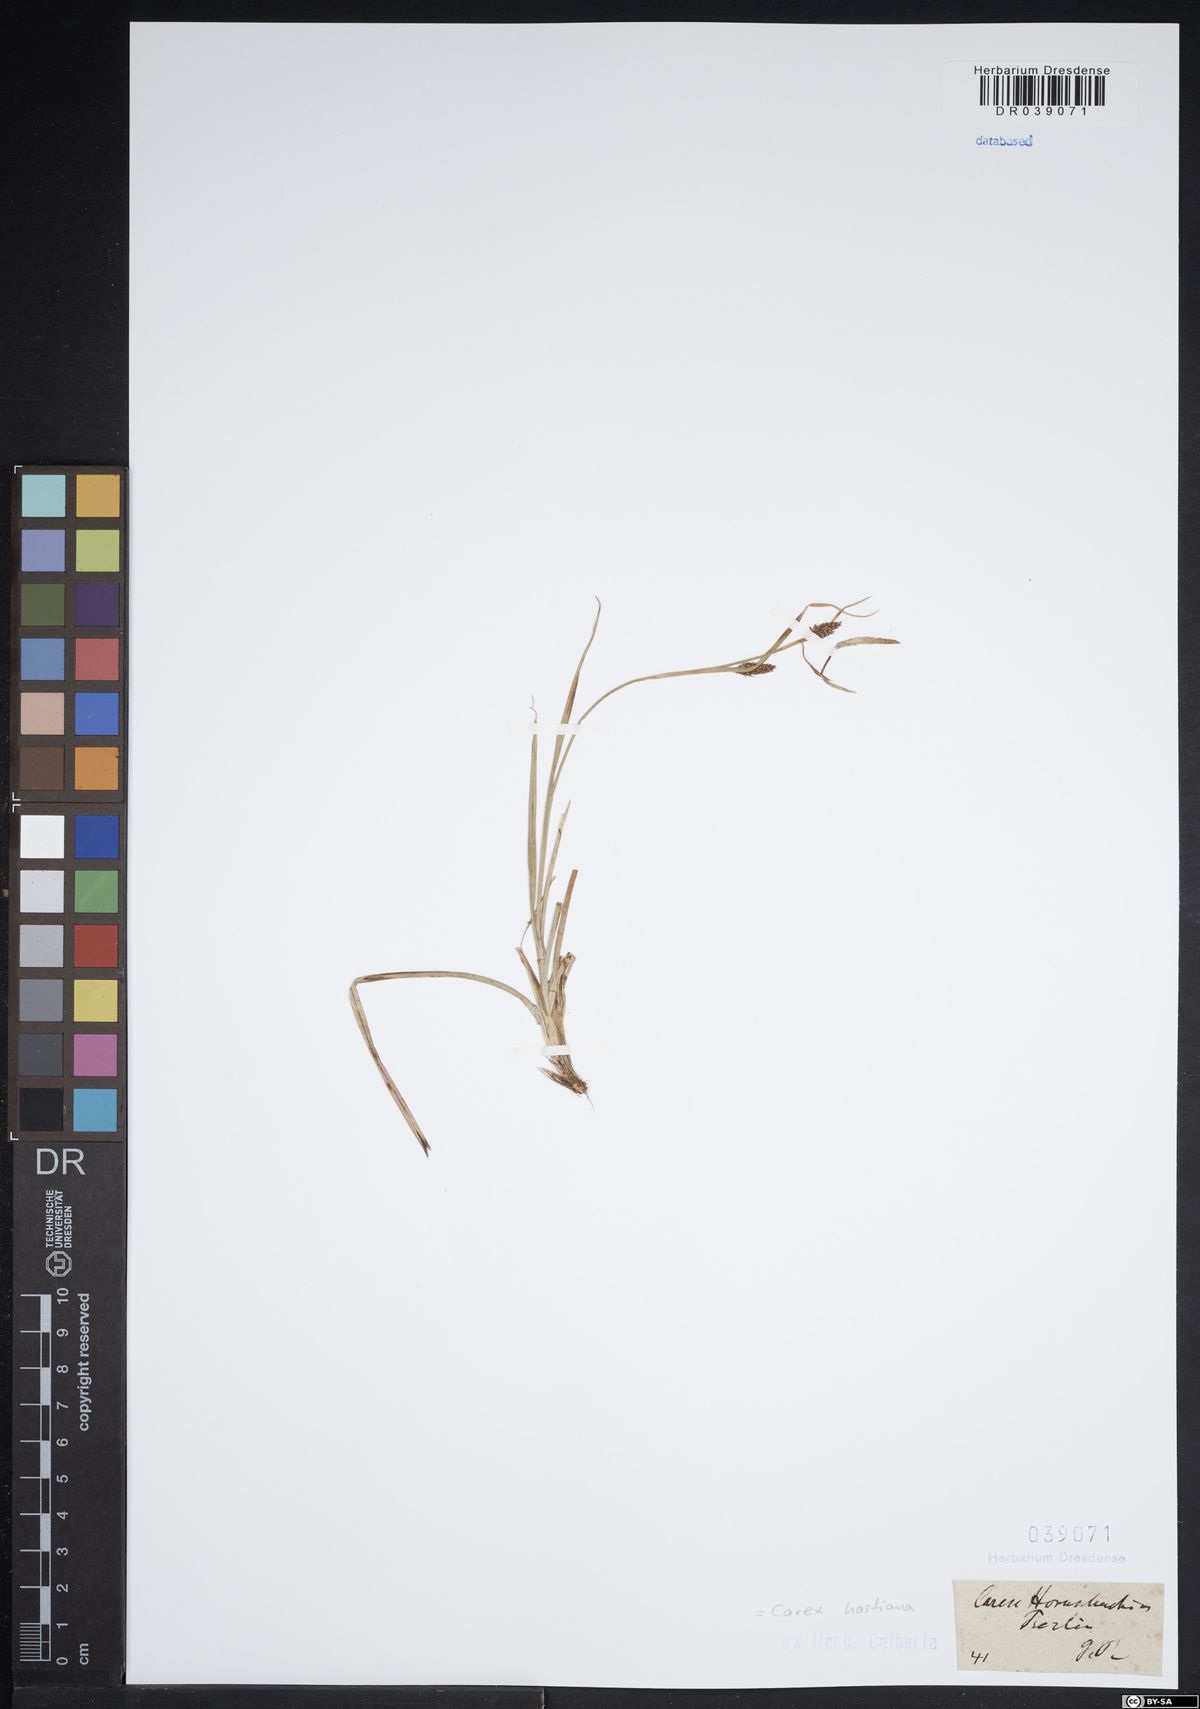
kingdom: Plantae
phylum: Tracheophyta
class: Liliopsida
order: Poales
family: Cyperaceae
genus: Carex
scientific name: Carex hostiana
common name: Tawny sedge
